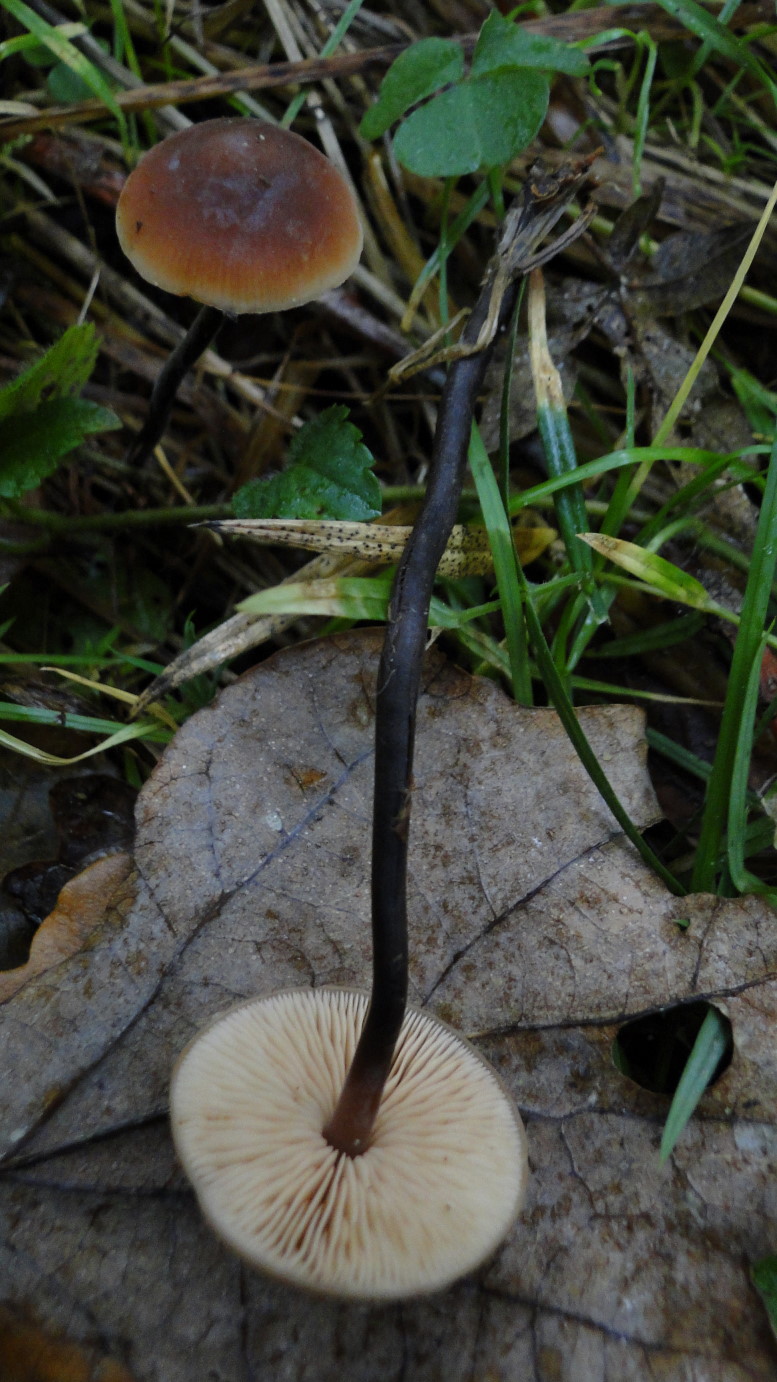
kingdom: Fungi
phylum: Basidiomycota
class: Agaricomycetes
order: Agaricales
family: Macrocystidiaceae
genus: Macrocystidia
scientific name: Macrocystidia cucumis
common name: agurkehat
